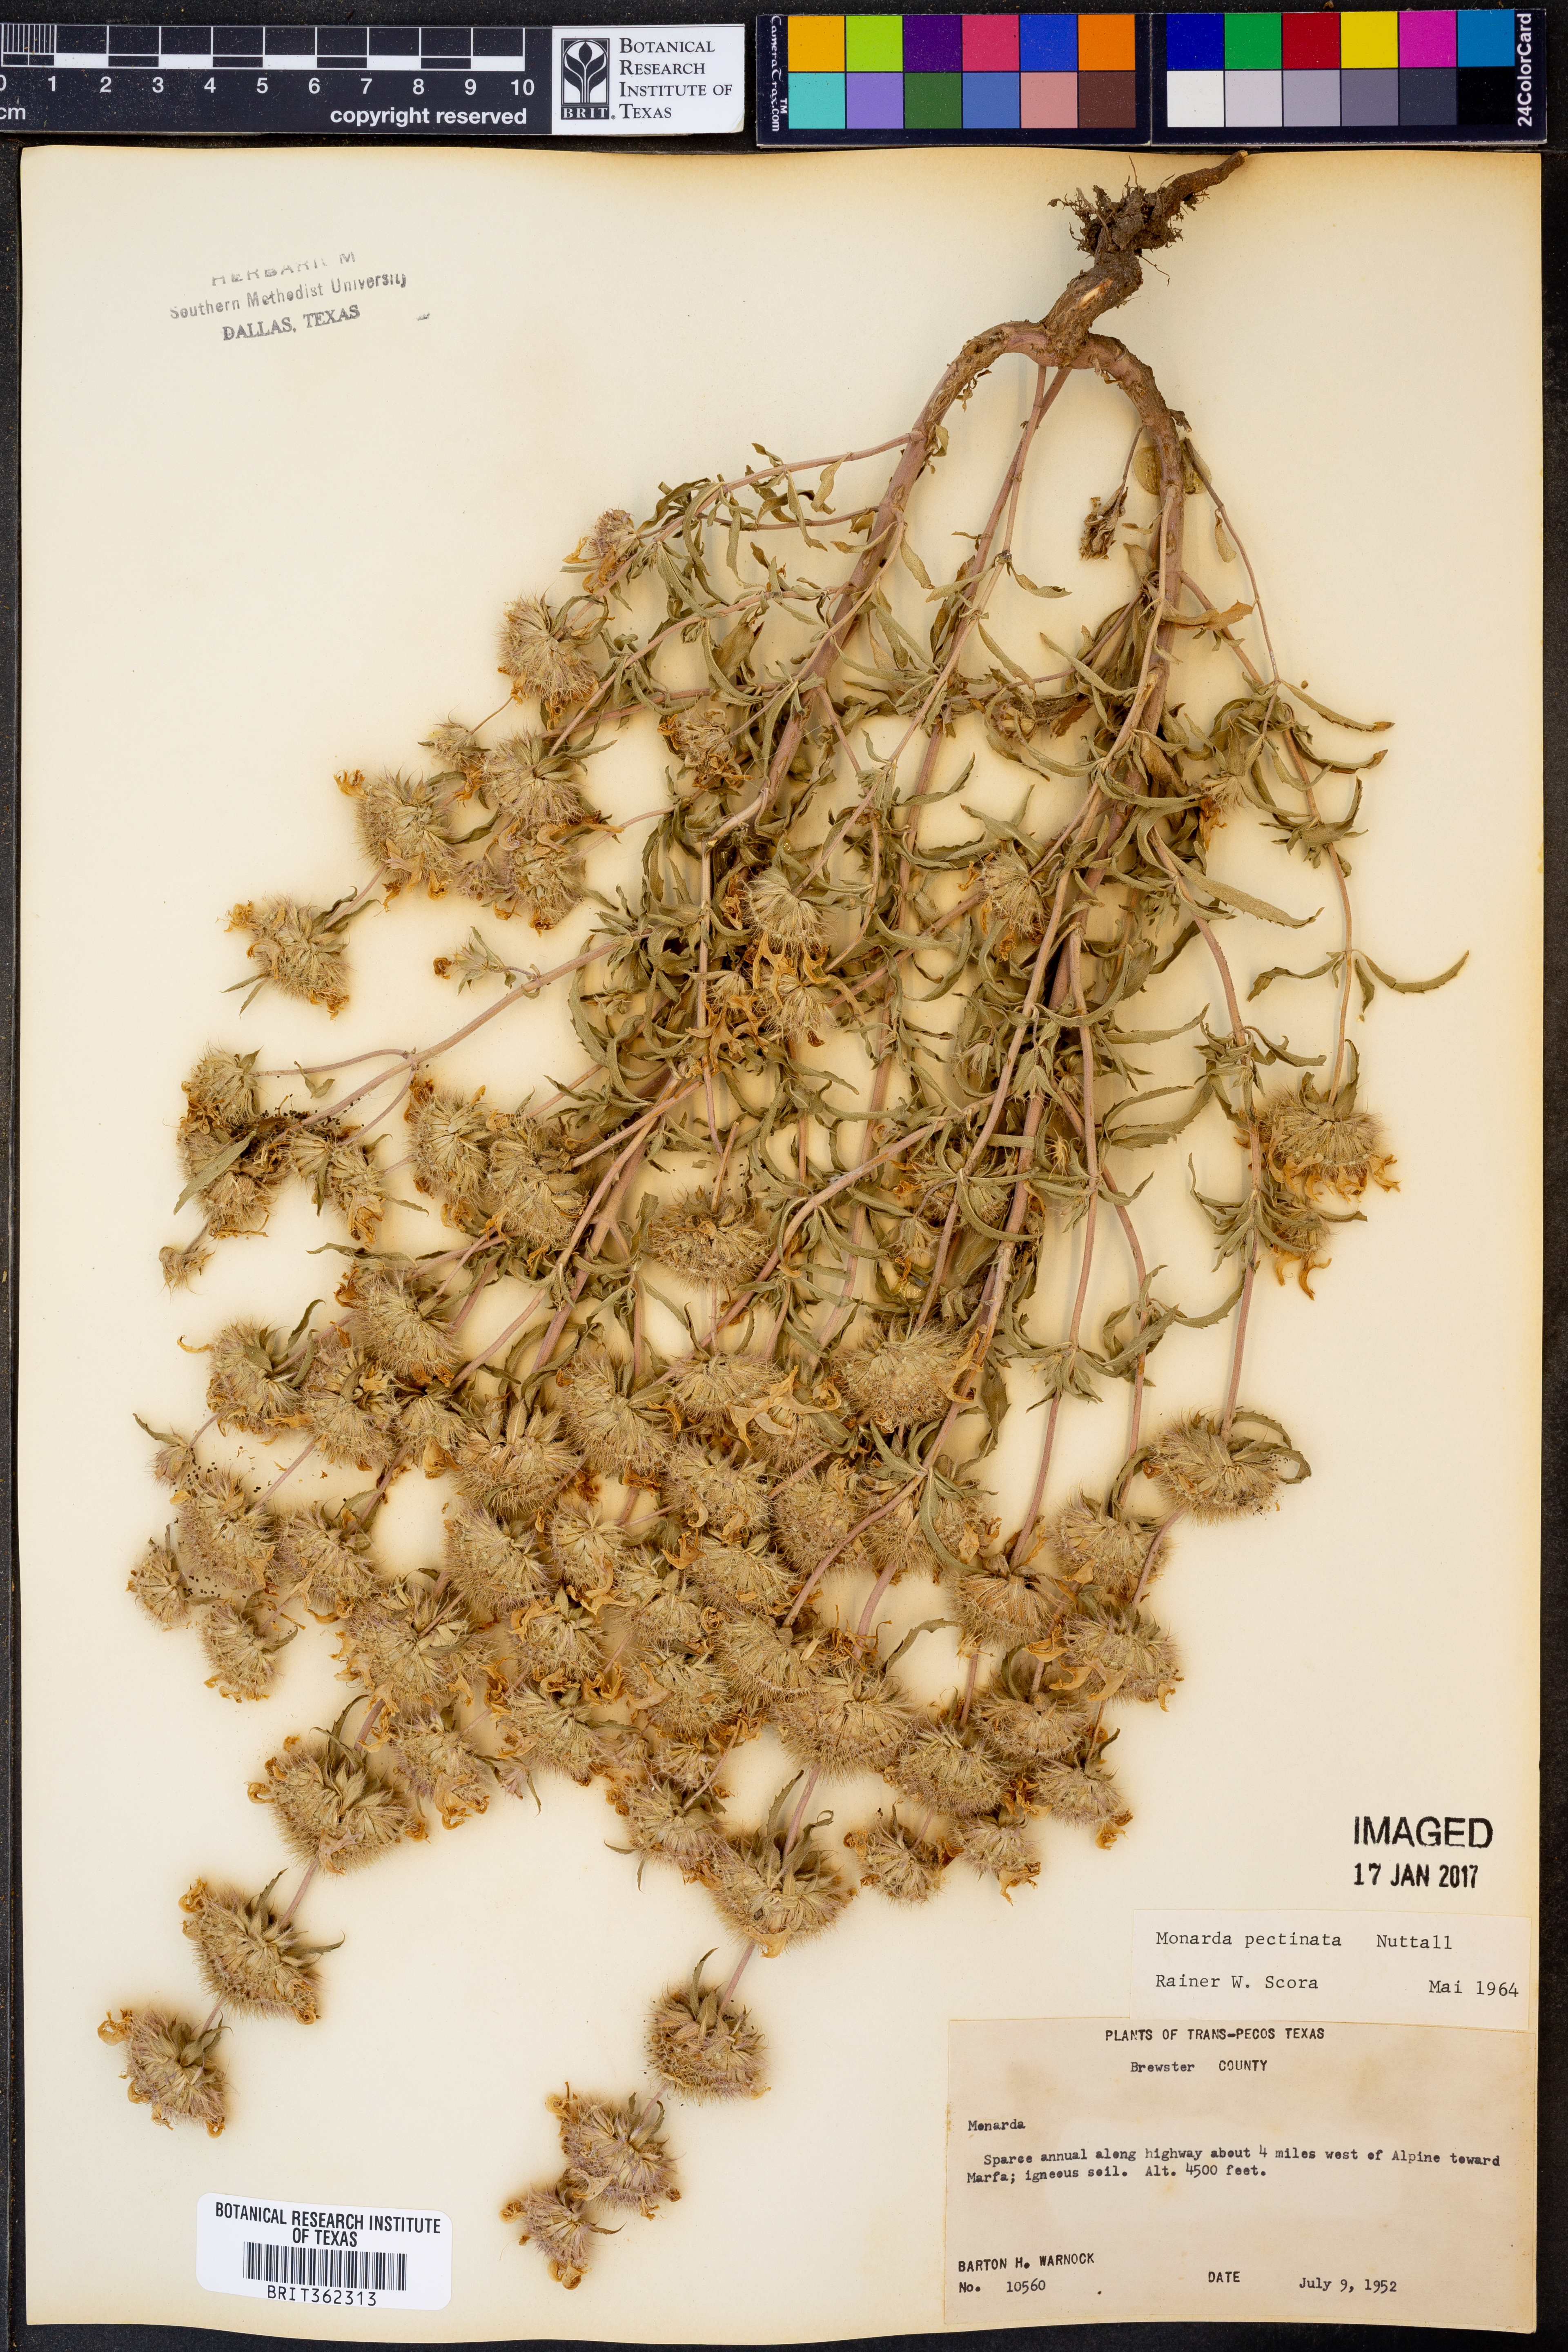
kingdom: Plantae
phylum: Tracheophyta
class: Magnoliopsida
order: Lamiales
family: Lamiaceae
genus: Monarda
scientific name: Monarda pectinata
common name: Plains beebalm
